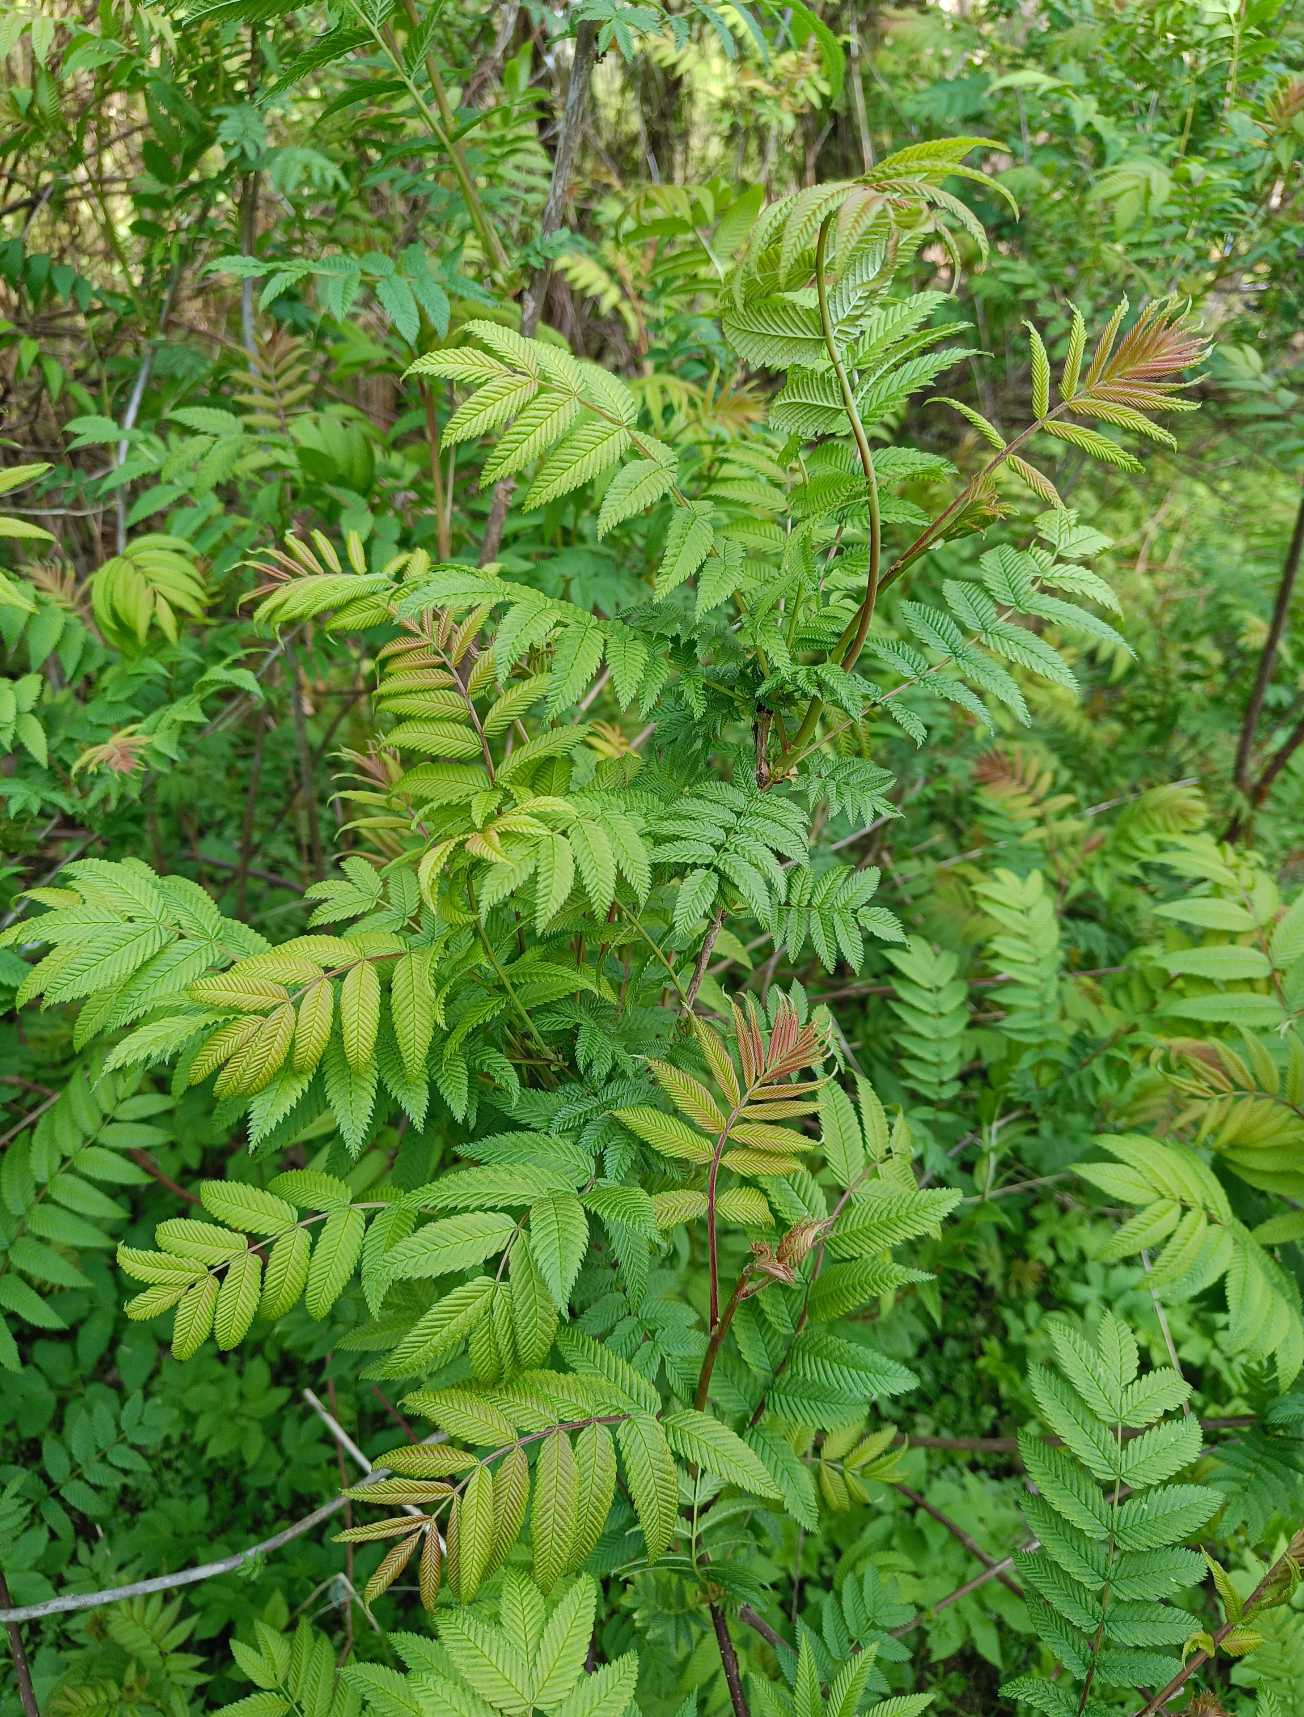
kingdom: Plantae
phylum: Tracheophyta
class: Magnoliopsida
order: Rosales
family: Rosaceae
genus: Sorbaria
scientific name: Sorbaria
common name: Tusindtopslægten
